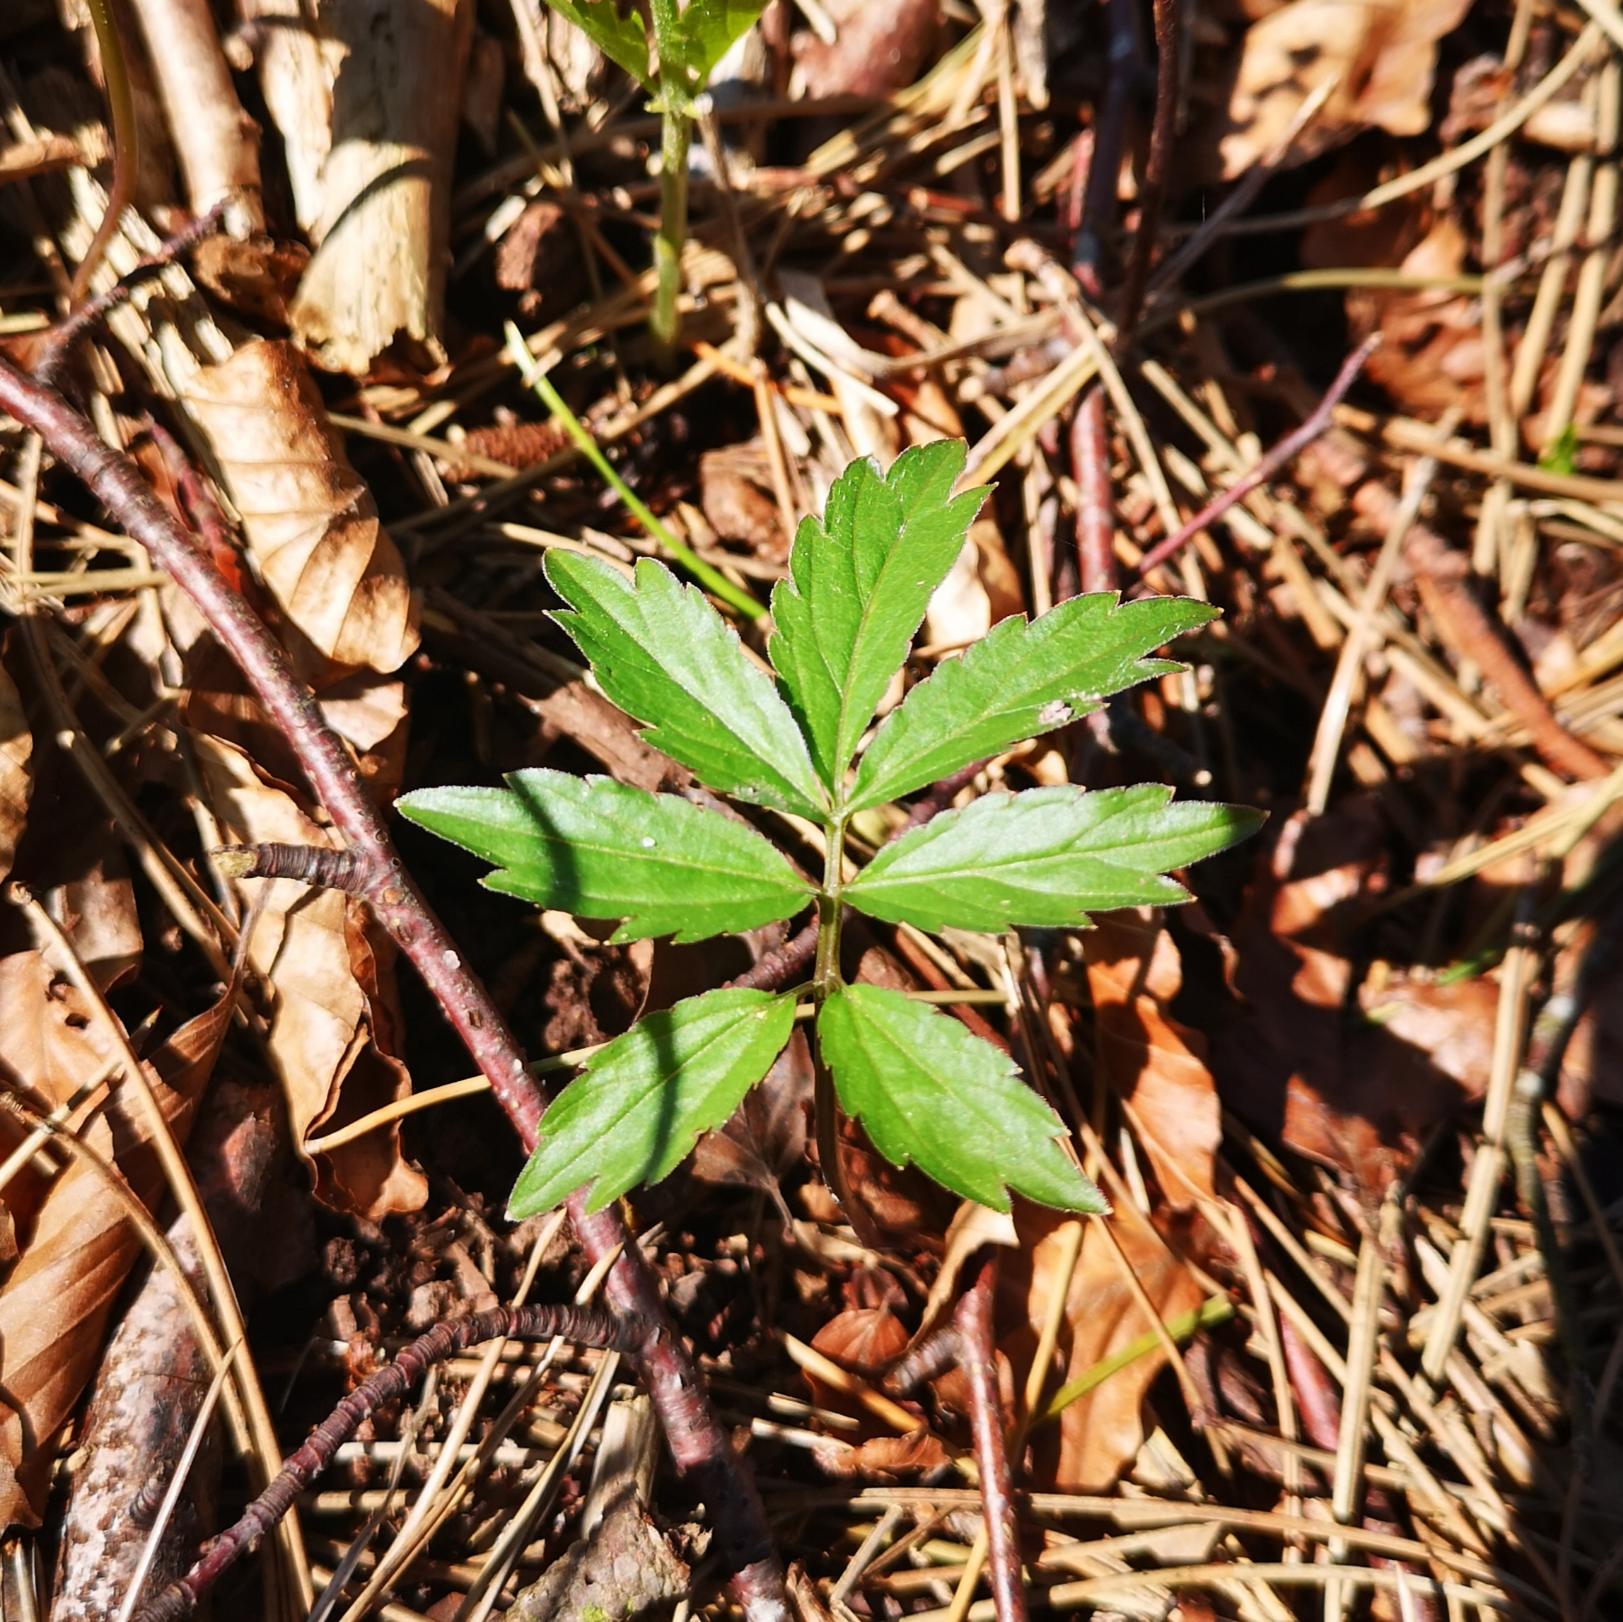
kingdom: Plantae
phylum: Tracheophyta
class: Magnoliopsida
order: Brassicales
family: Brassicaceae
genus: Cardamine
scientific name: Cardamine bulbifera
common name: Tandrod
